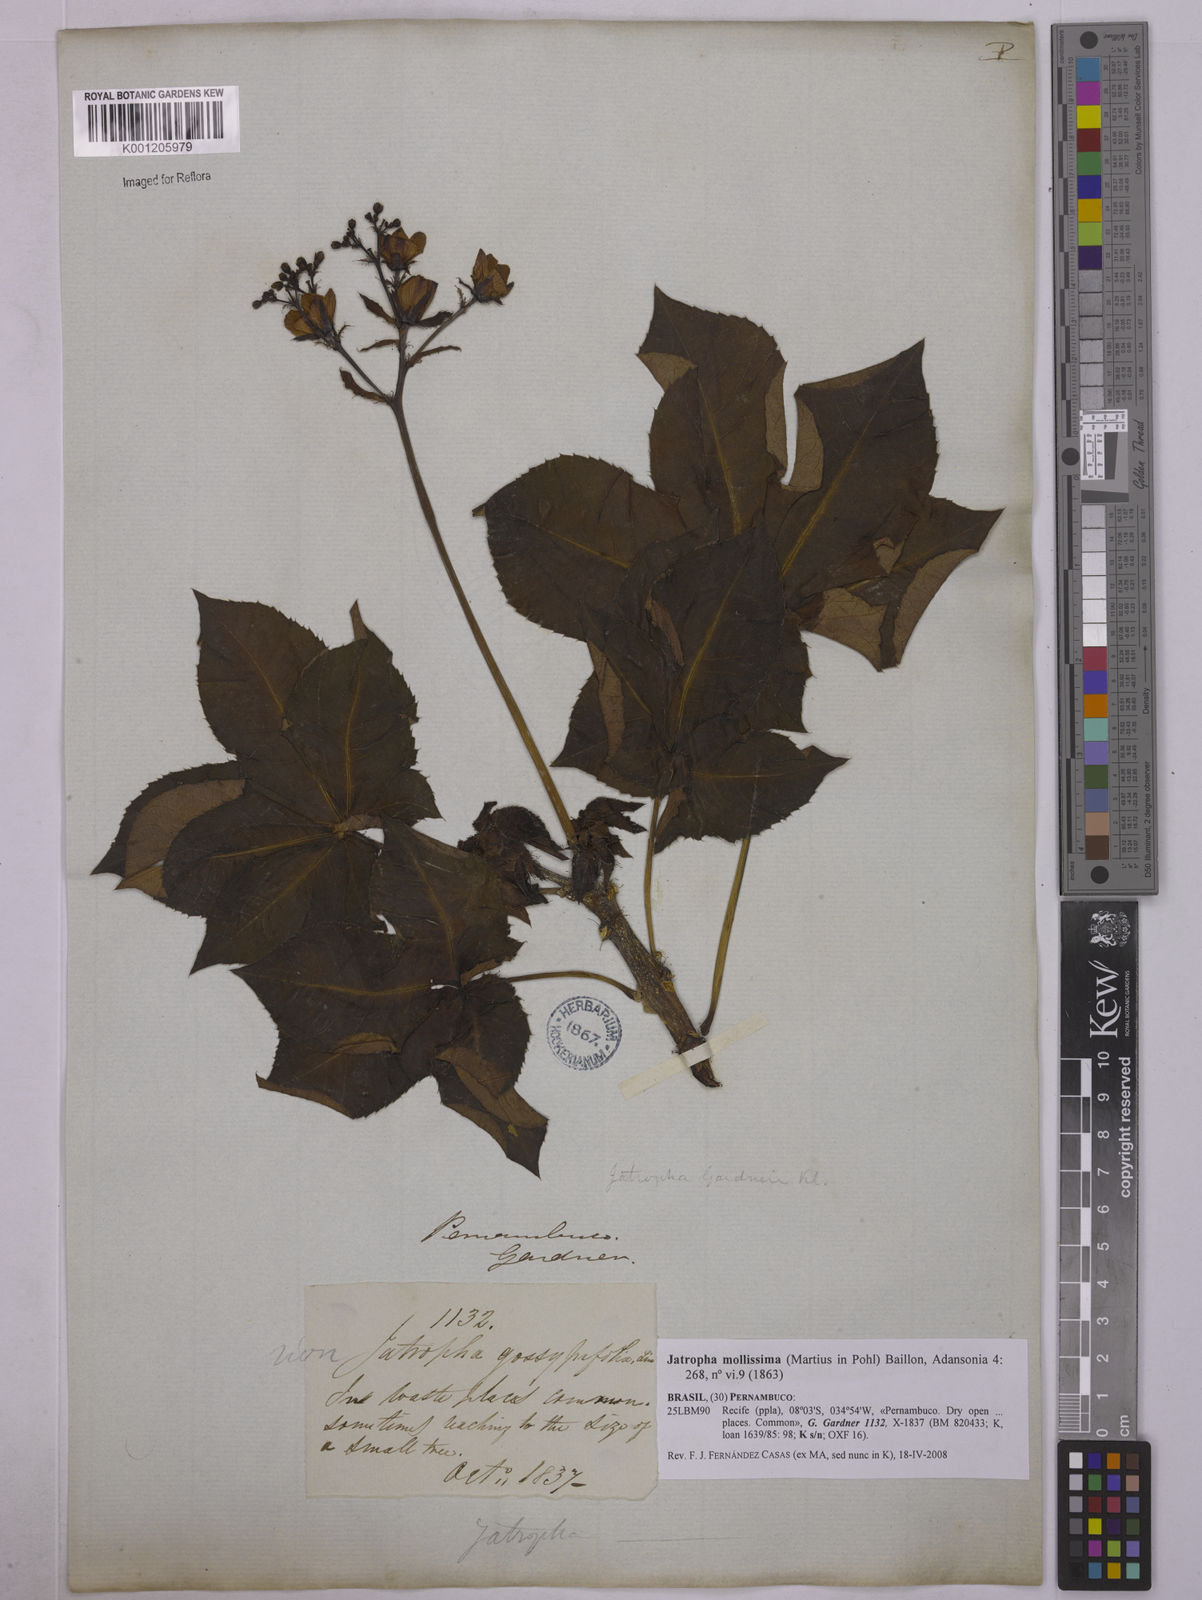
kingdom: Plantae
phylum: Tracheophyta
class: Magnoliopsida
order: Malpighiales
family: Euphorbiaceae
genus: Jatropha
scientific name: Jatropha mollissima
